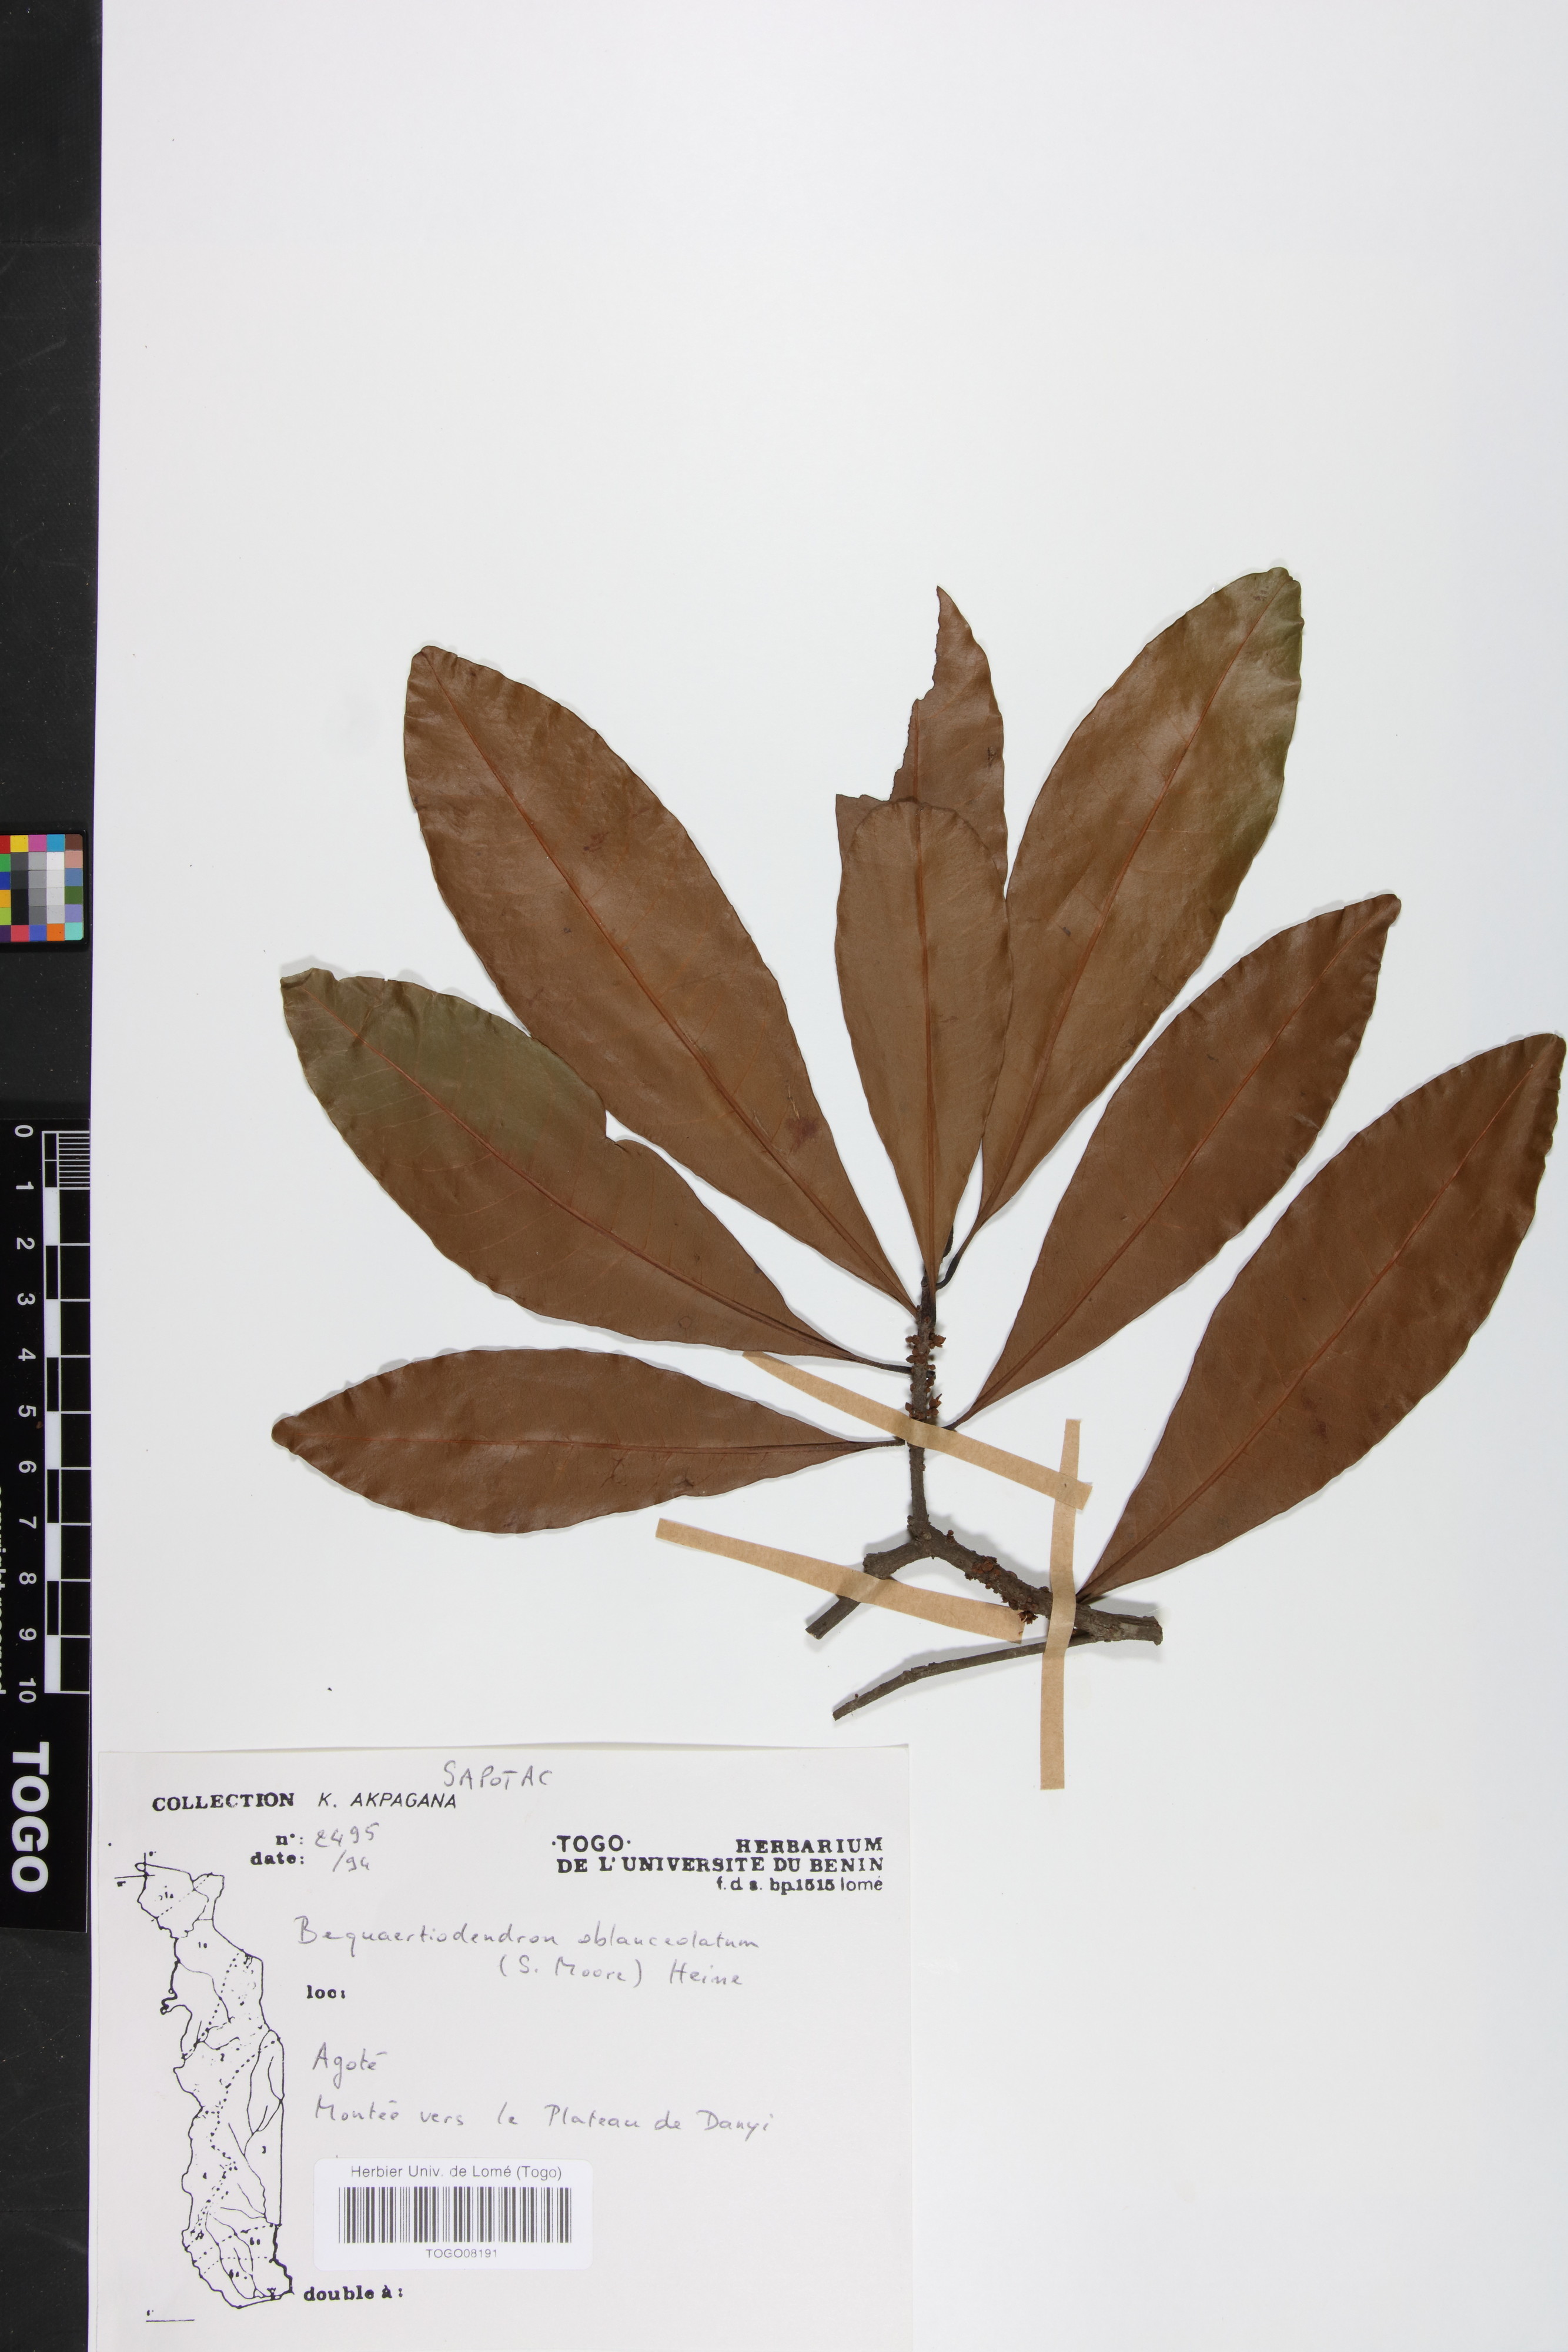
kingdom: Plantae
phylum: Tracheophyta
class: Magnoliopsida
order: Ericales
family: Sapotaceae
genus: Englerophytum
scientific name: Englerophytum oblanceolatum
